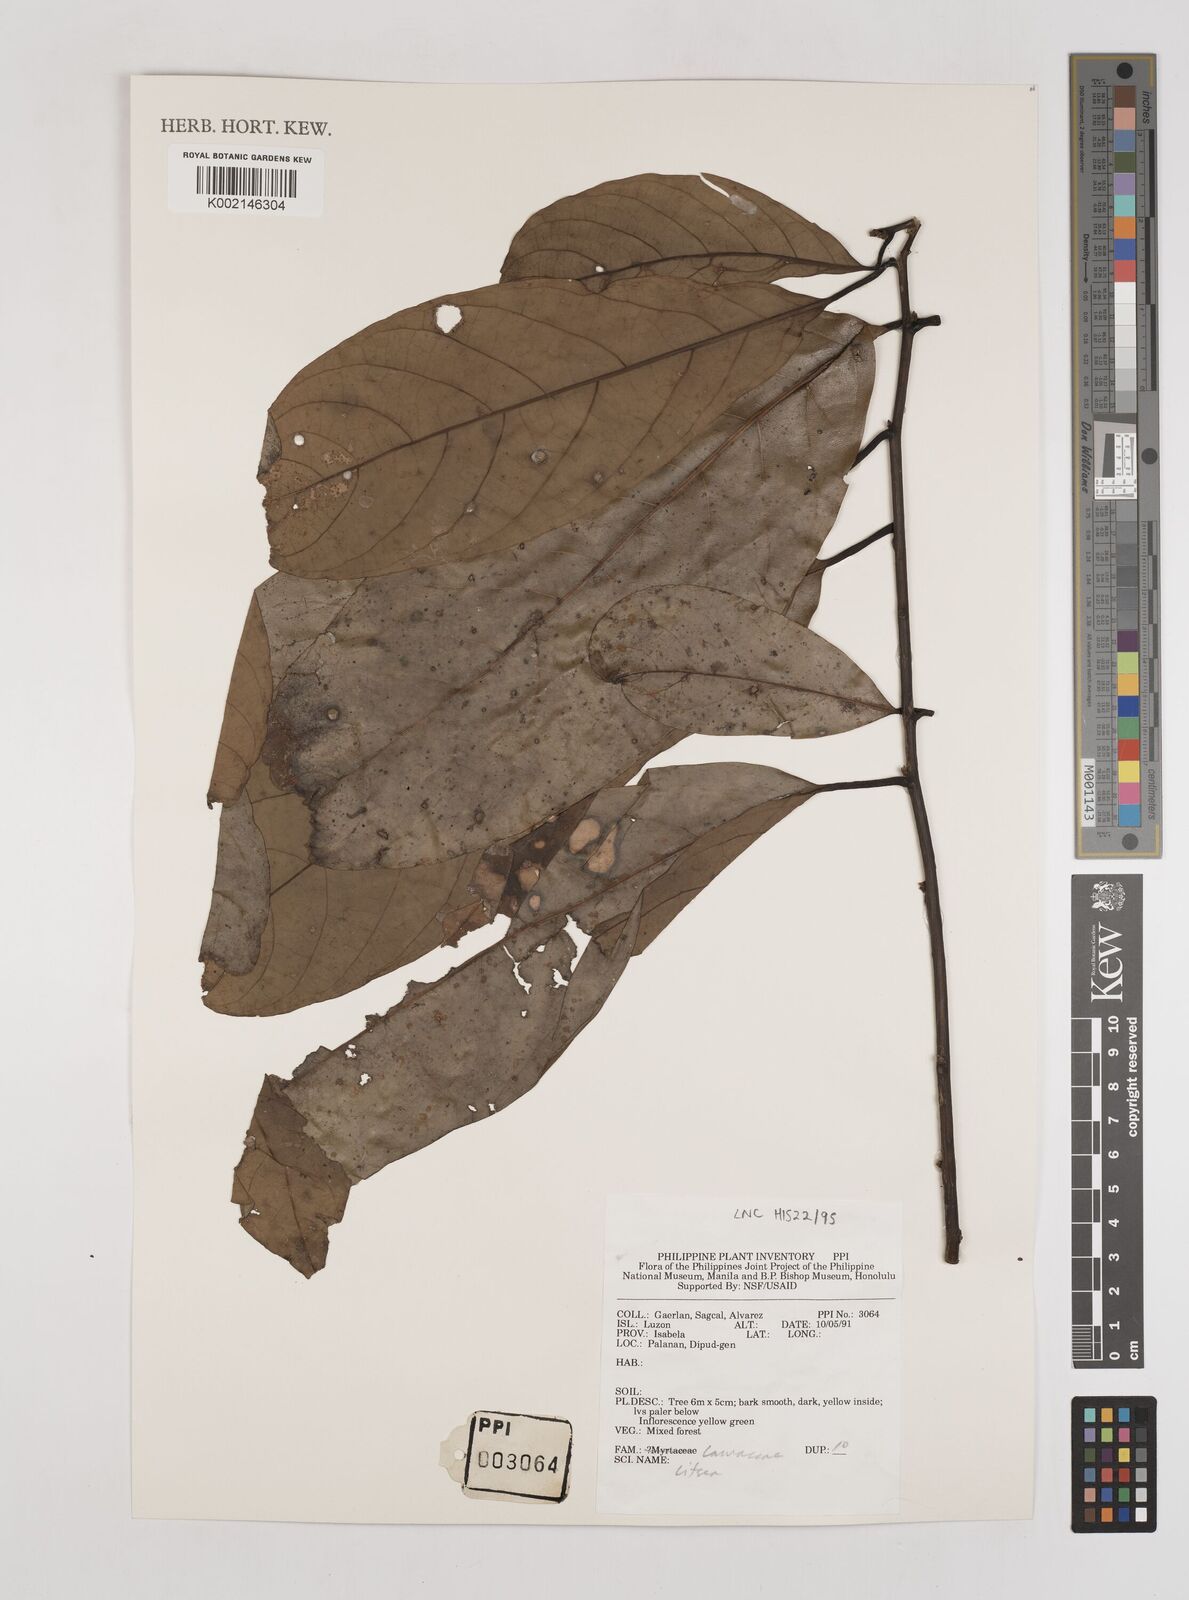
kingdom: Plantae
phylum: Tracheophyta
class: Magnoliopsida
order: Laurales
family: Lauraceae
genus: Litsea
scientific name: Litsea
